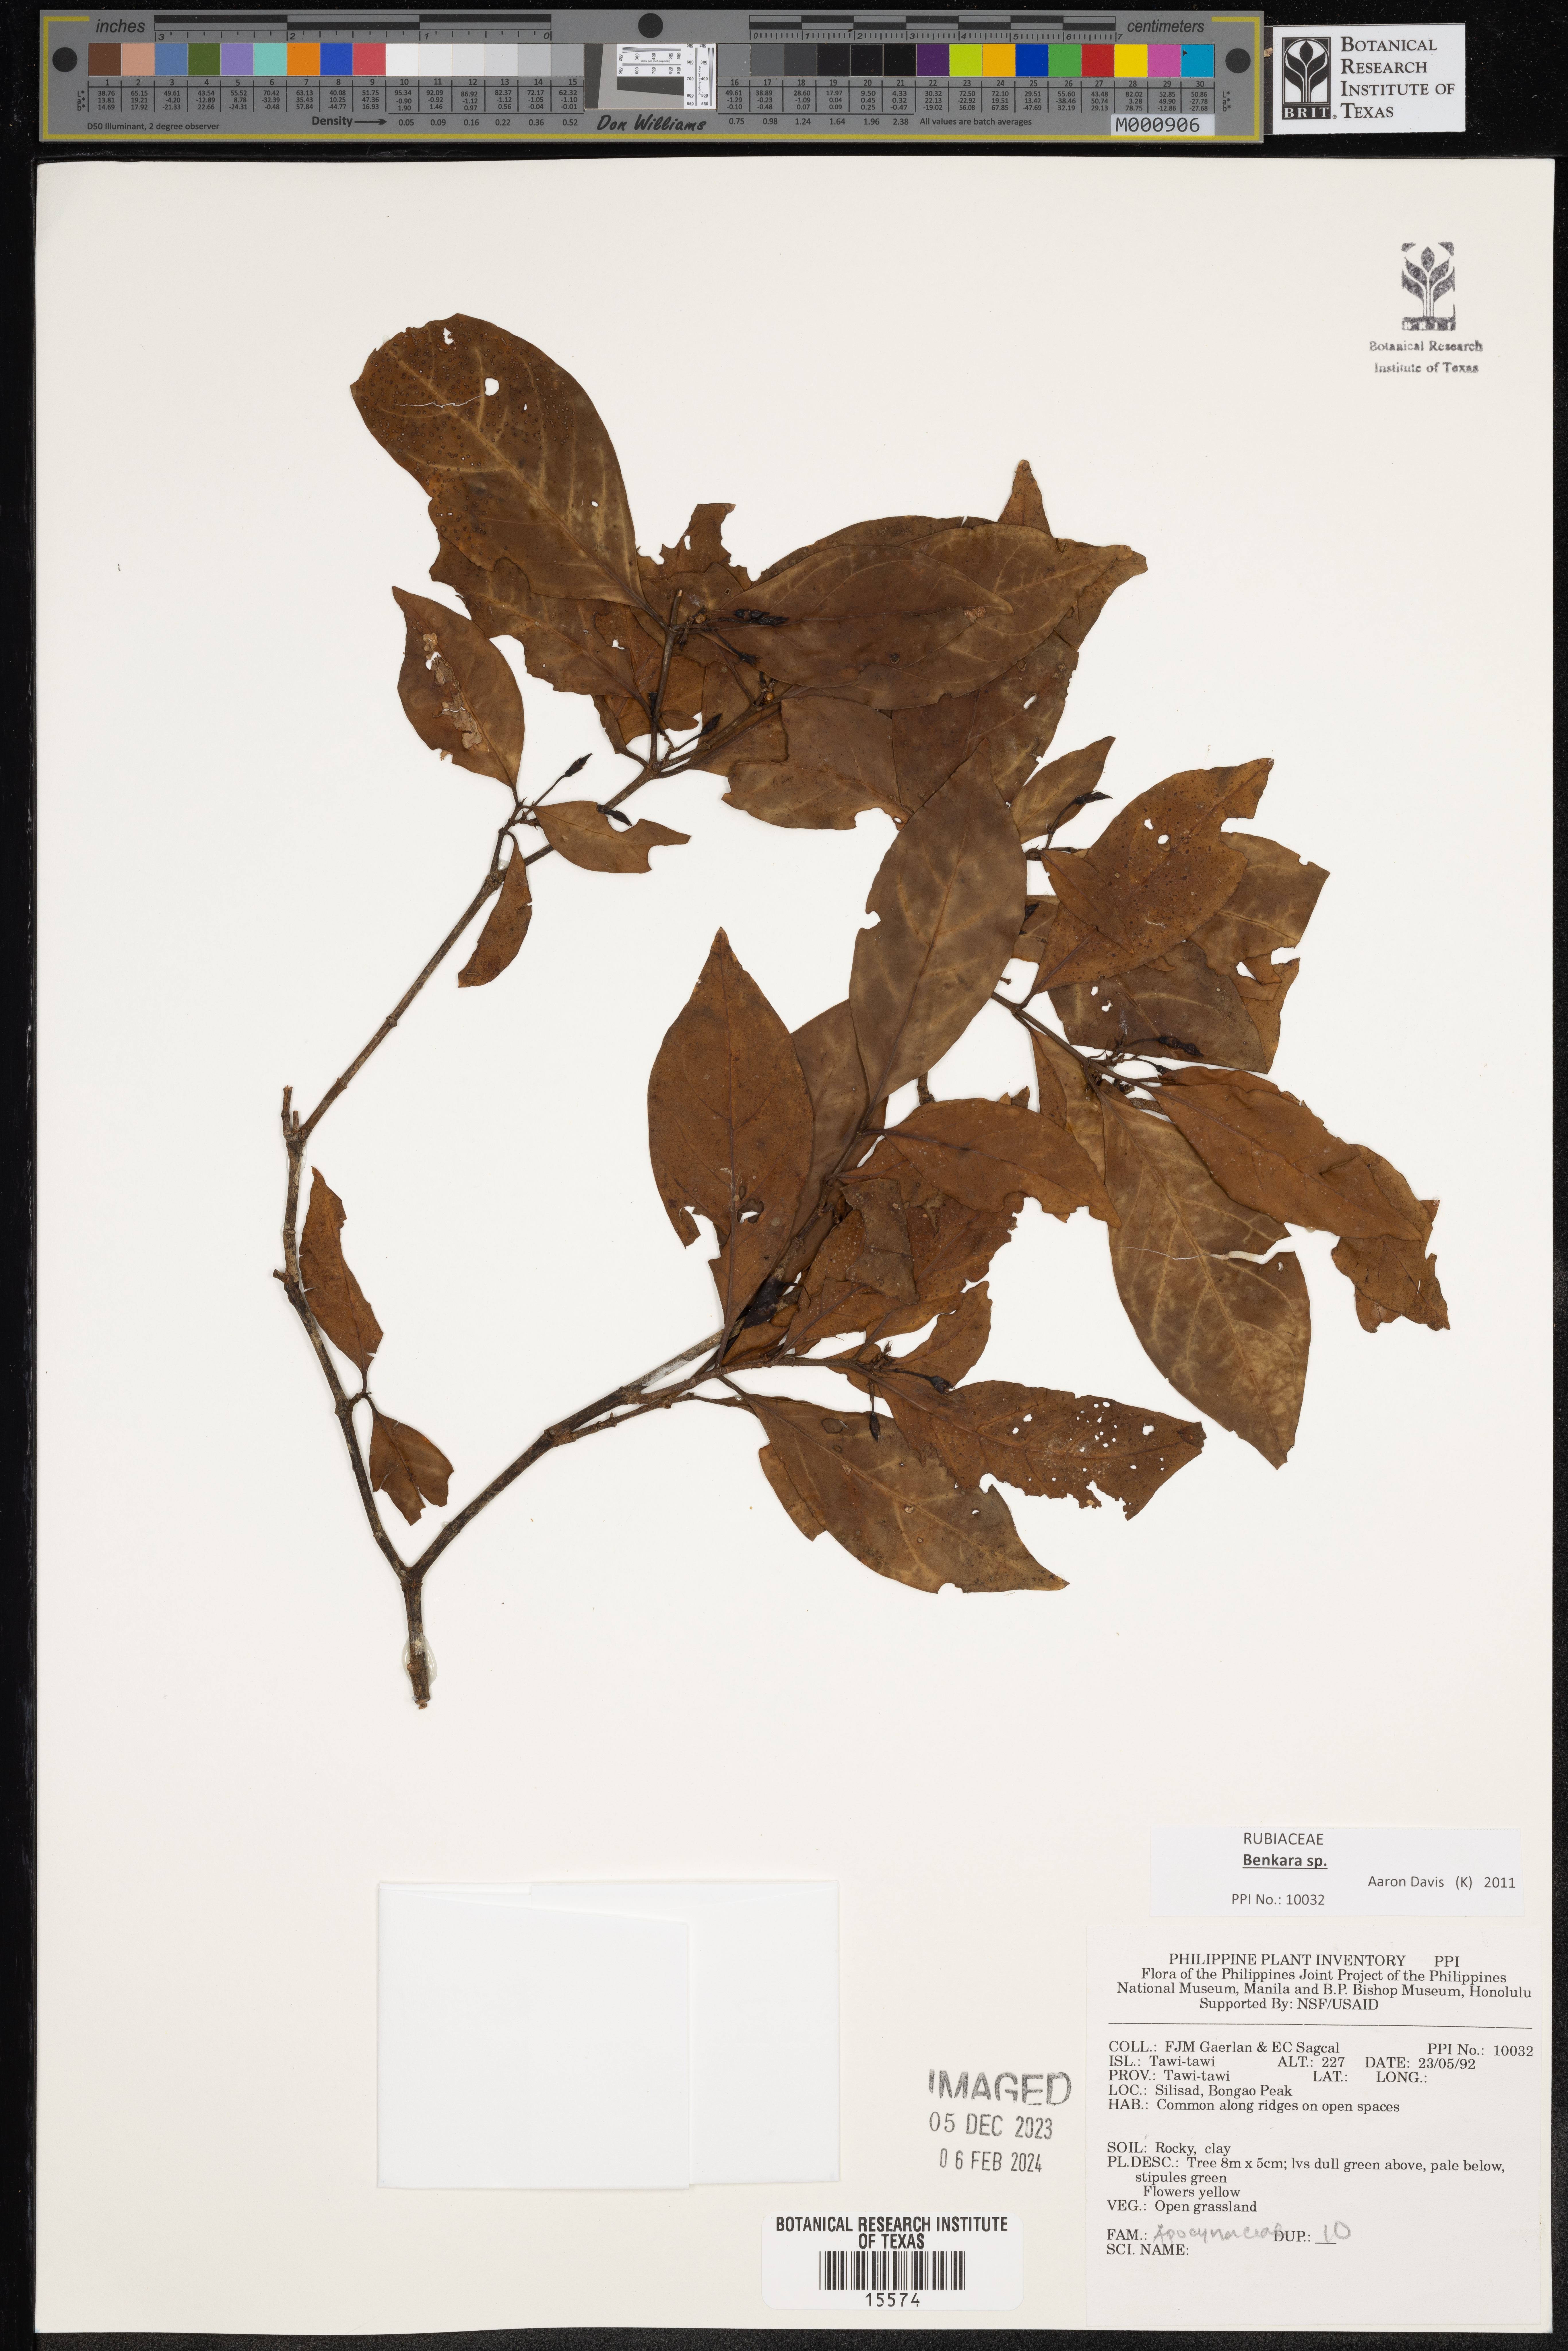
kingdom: Plantae
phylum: Tracheophyta
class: Magnoliopsida
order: Gentianales
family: Apocynaceae
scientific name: Apocynaceae
